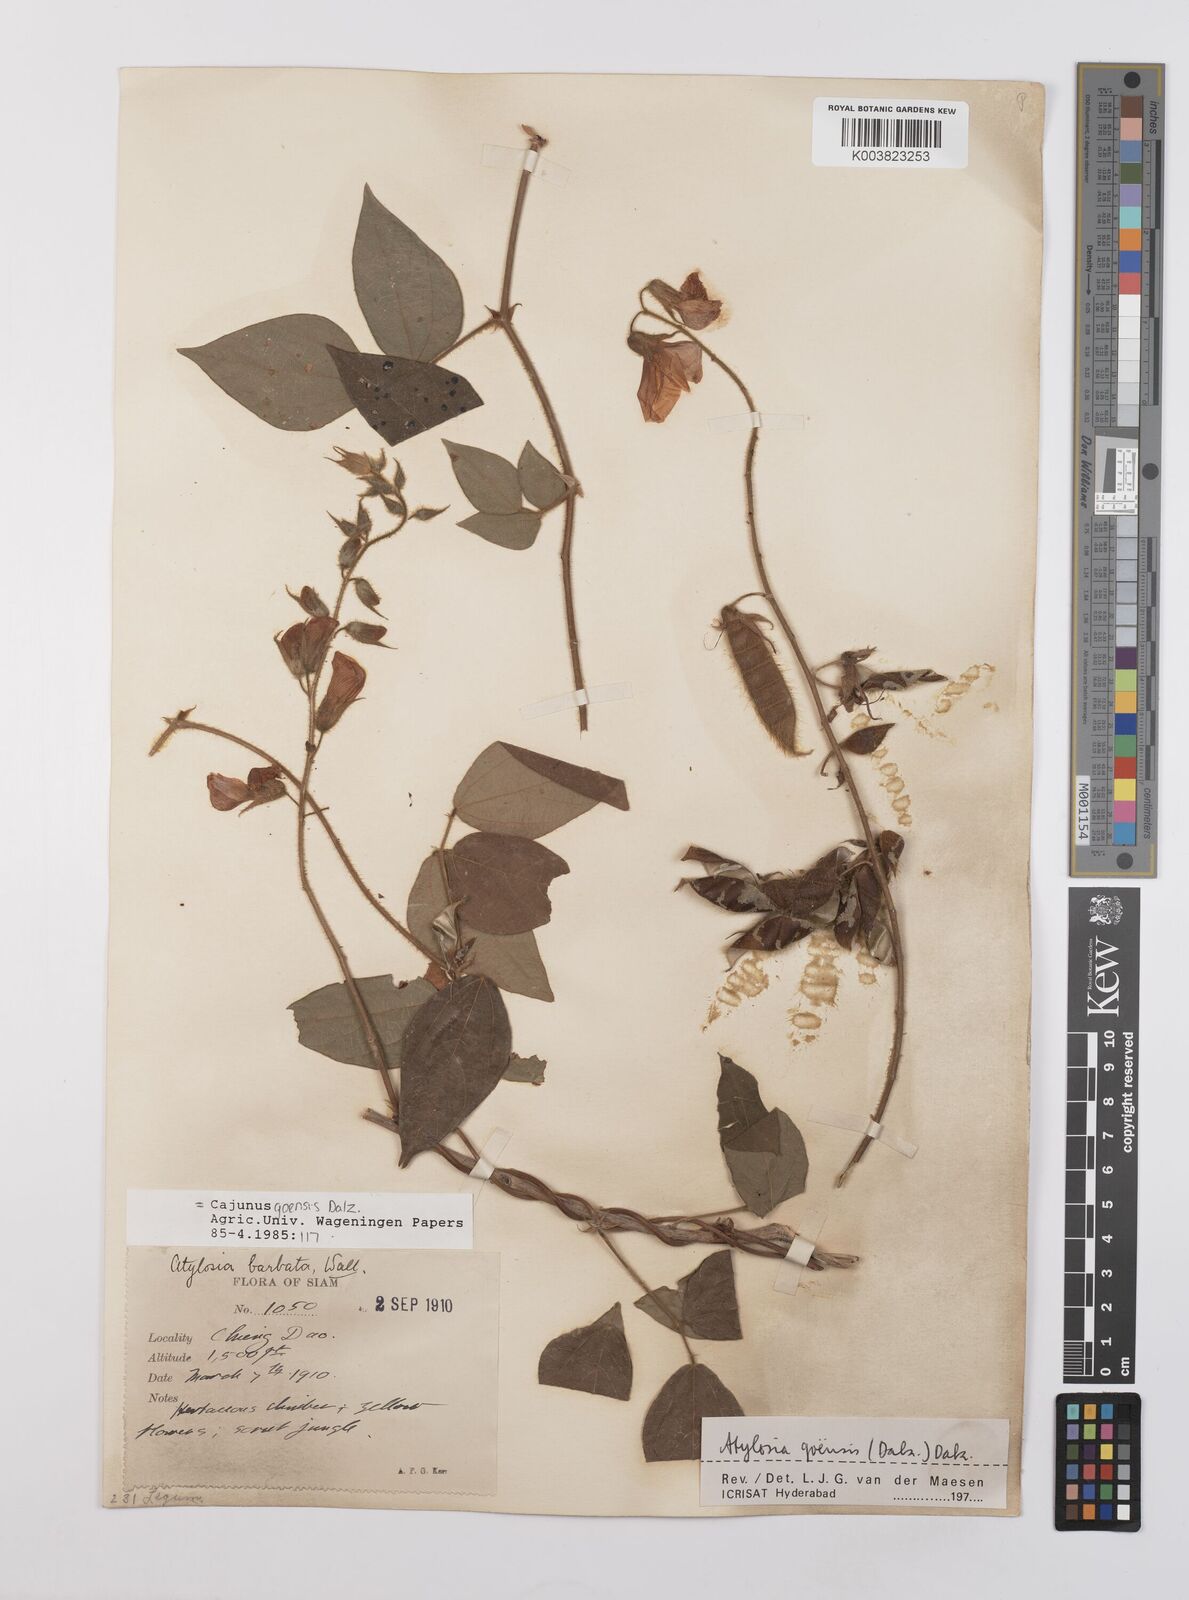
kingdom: Plantae
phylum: Tracheophyta
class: Magnoliopsida
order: Fabales
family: Fabaceae
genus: Cajanus
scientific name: Cajanus goensis
